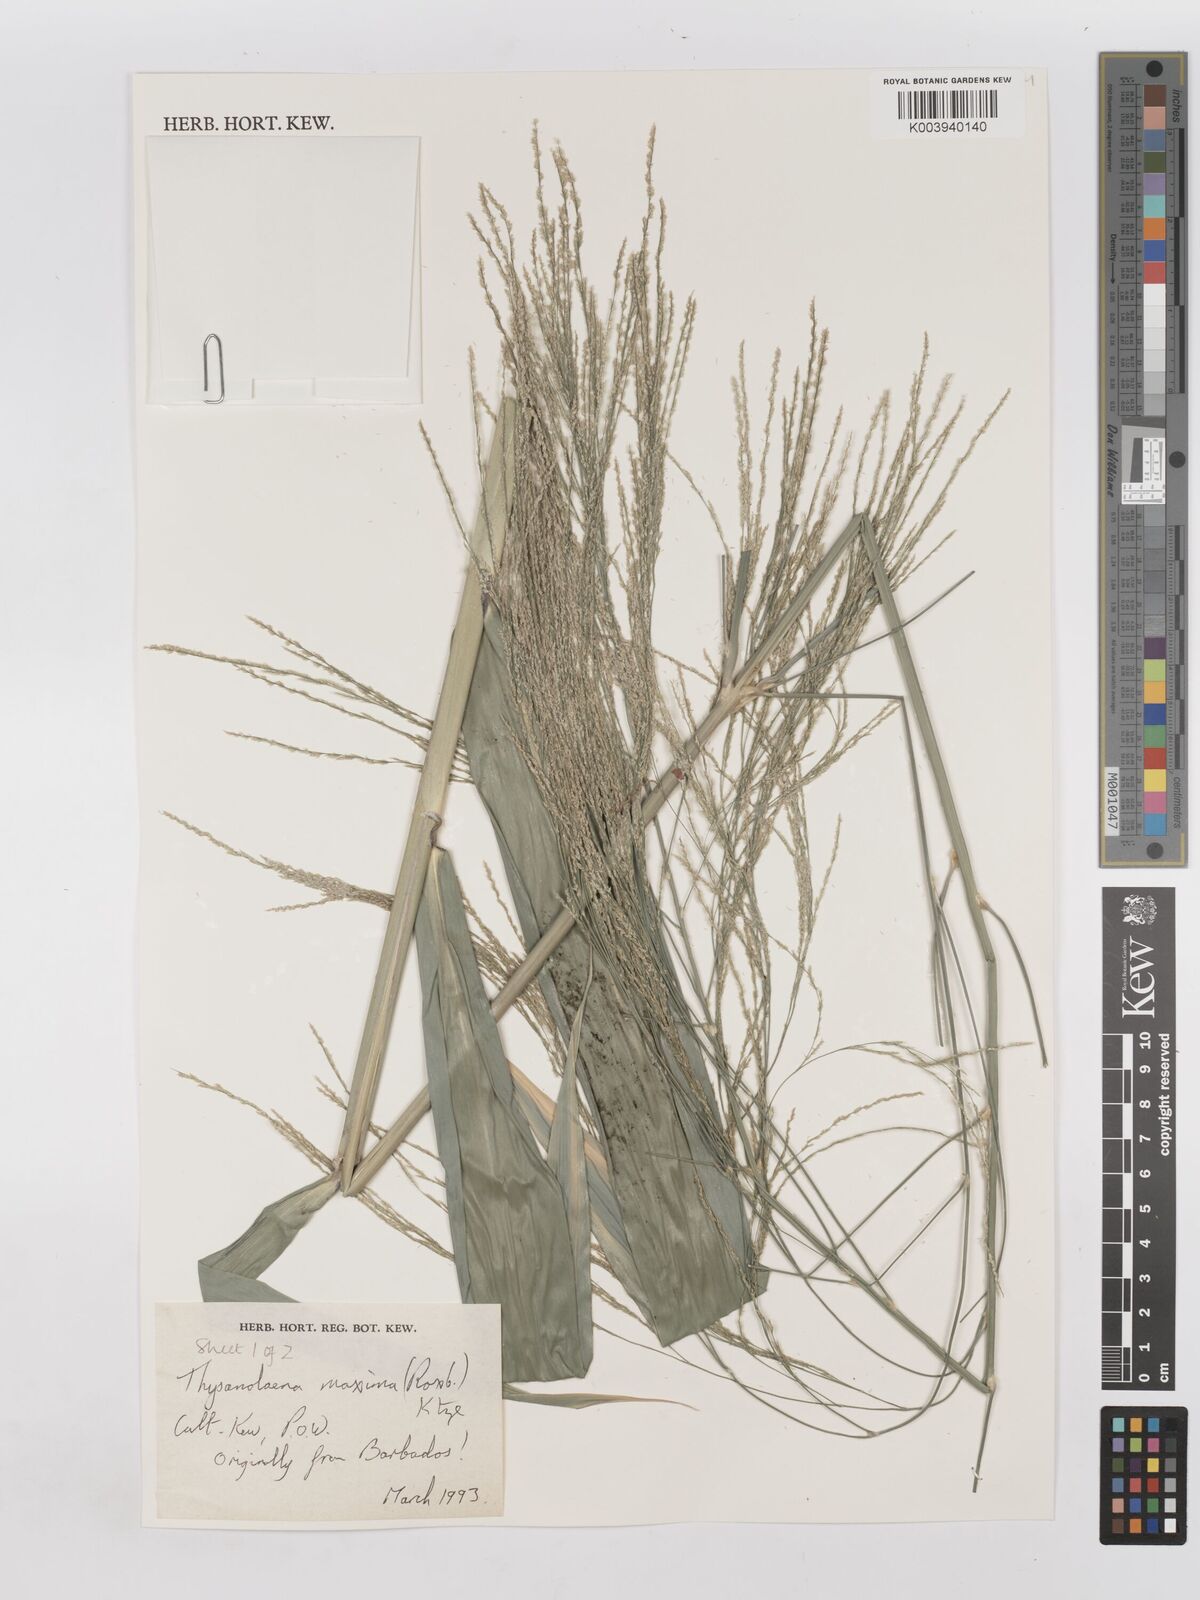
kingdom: Plantae
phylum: Tracheophyta
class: Liliopsida
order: Poales
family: Poaceae
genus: Thysanolaena
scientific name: Thysanolaena latifolia
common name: Tiger grass
